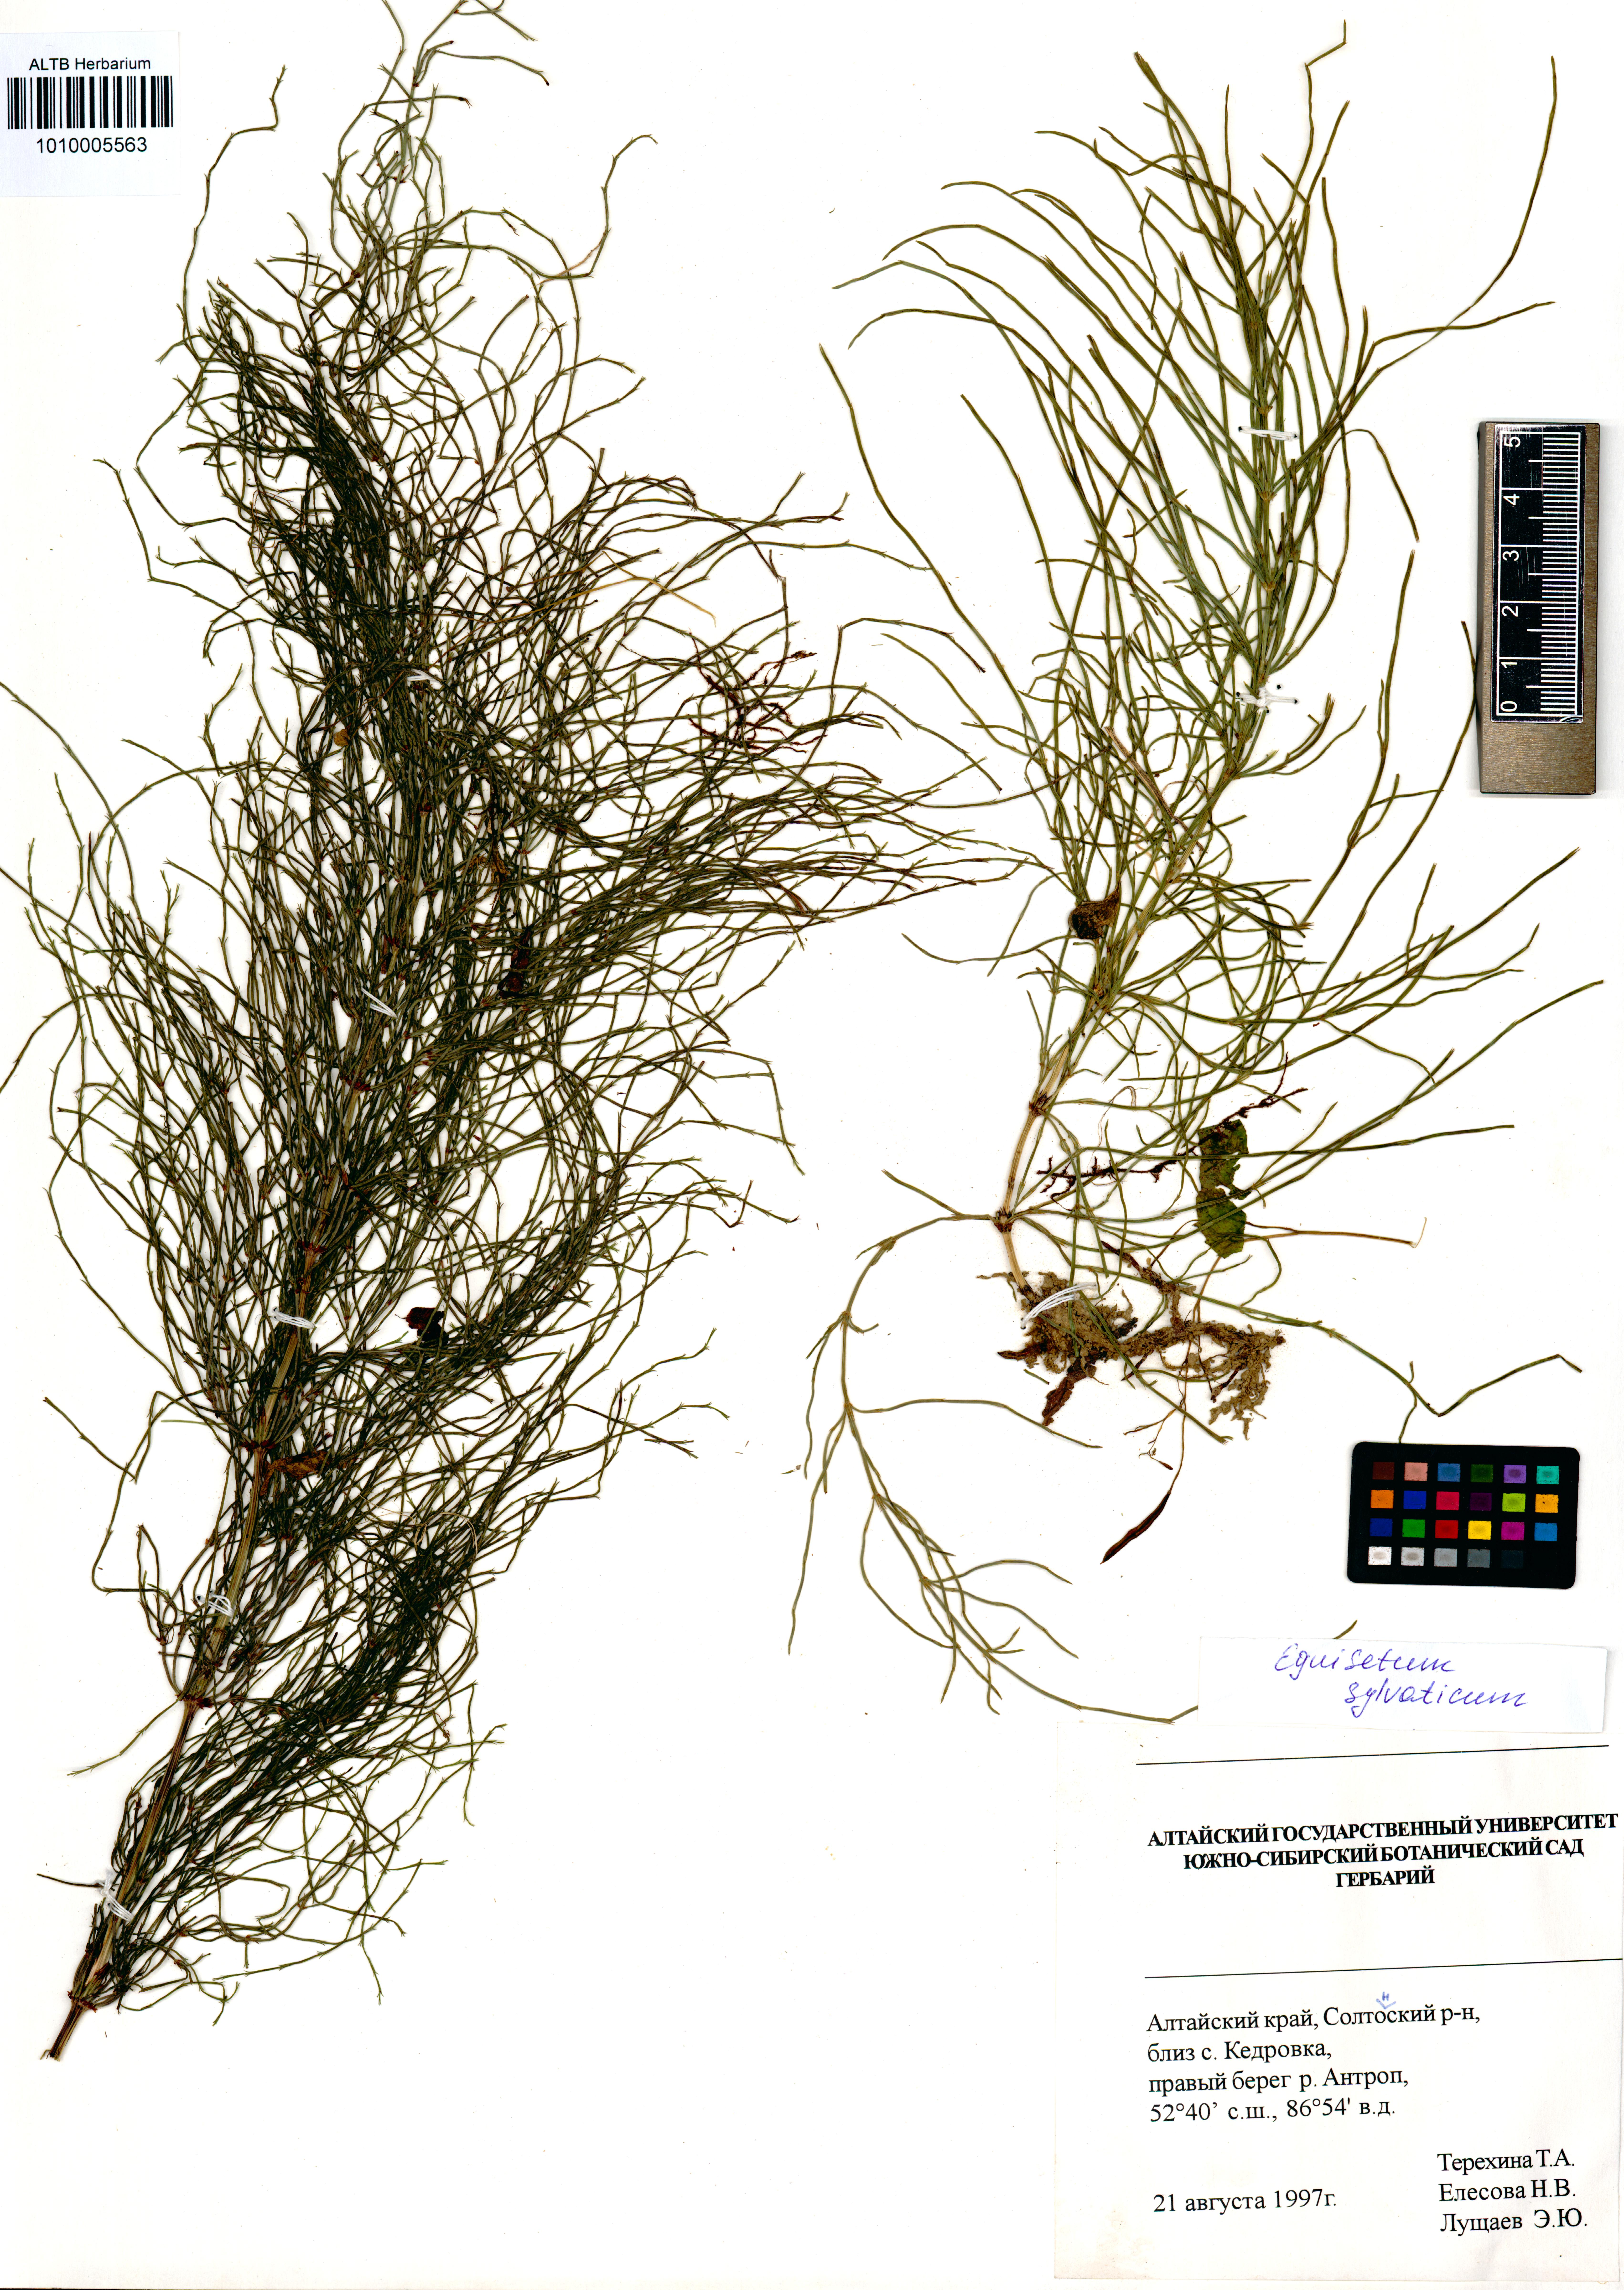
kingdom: Plantae
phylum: Tracheophyta
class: Polypodiopsida
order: Equisetales
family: Equisetaceae
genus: Equisetum
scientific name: Equisetum sylvaticum
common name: Wood horsetail
